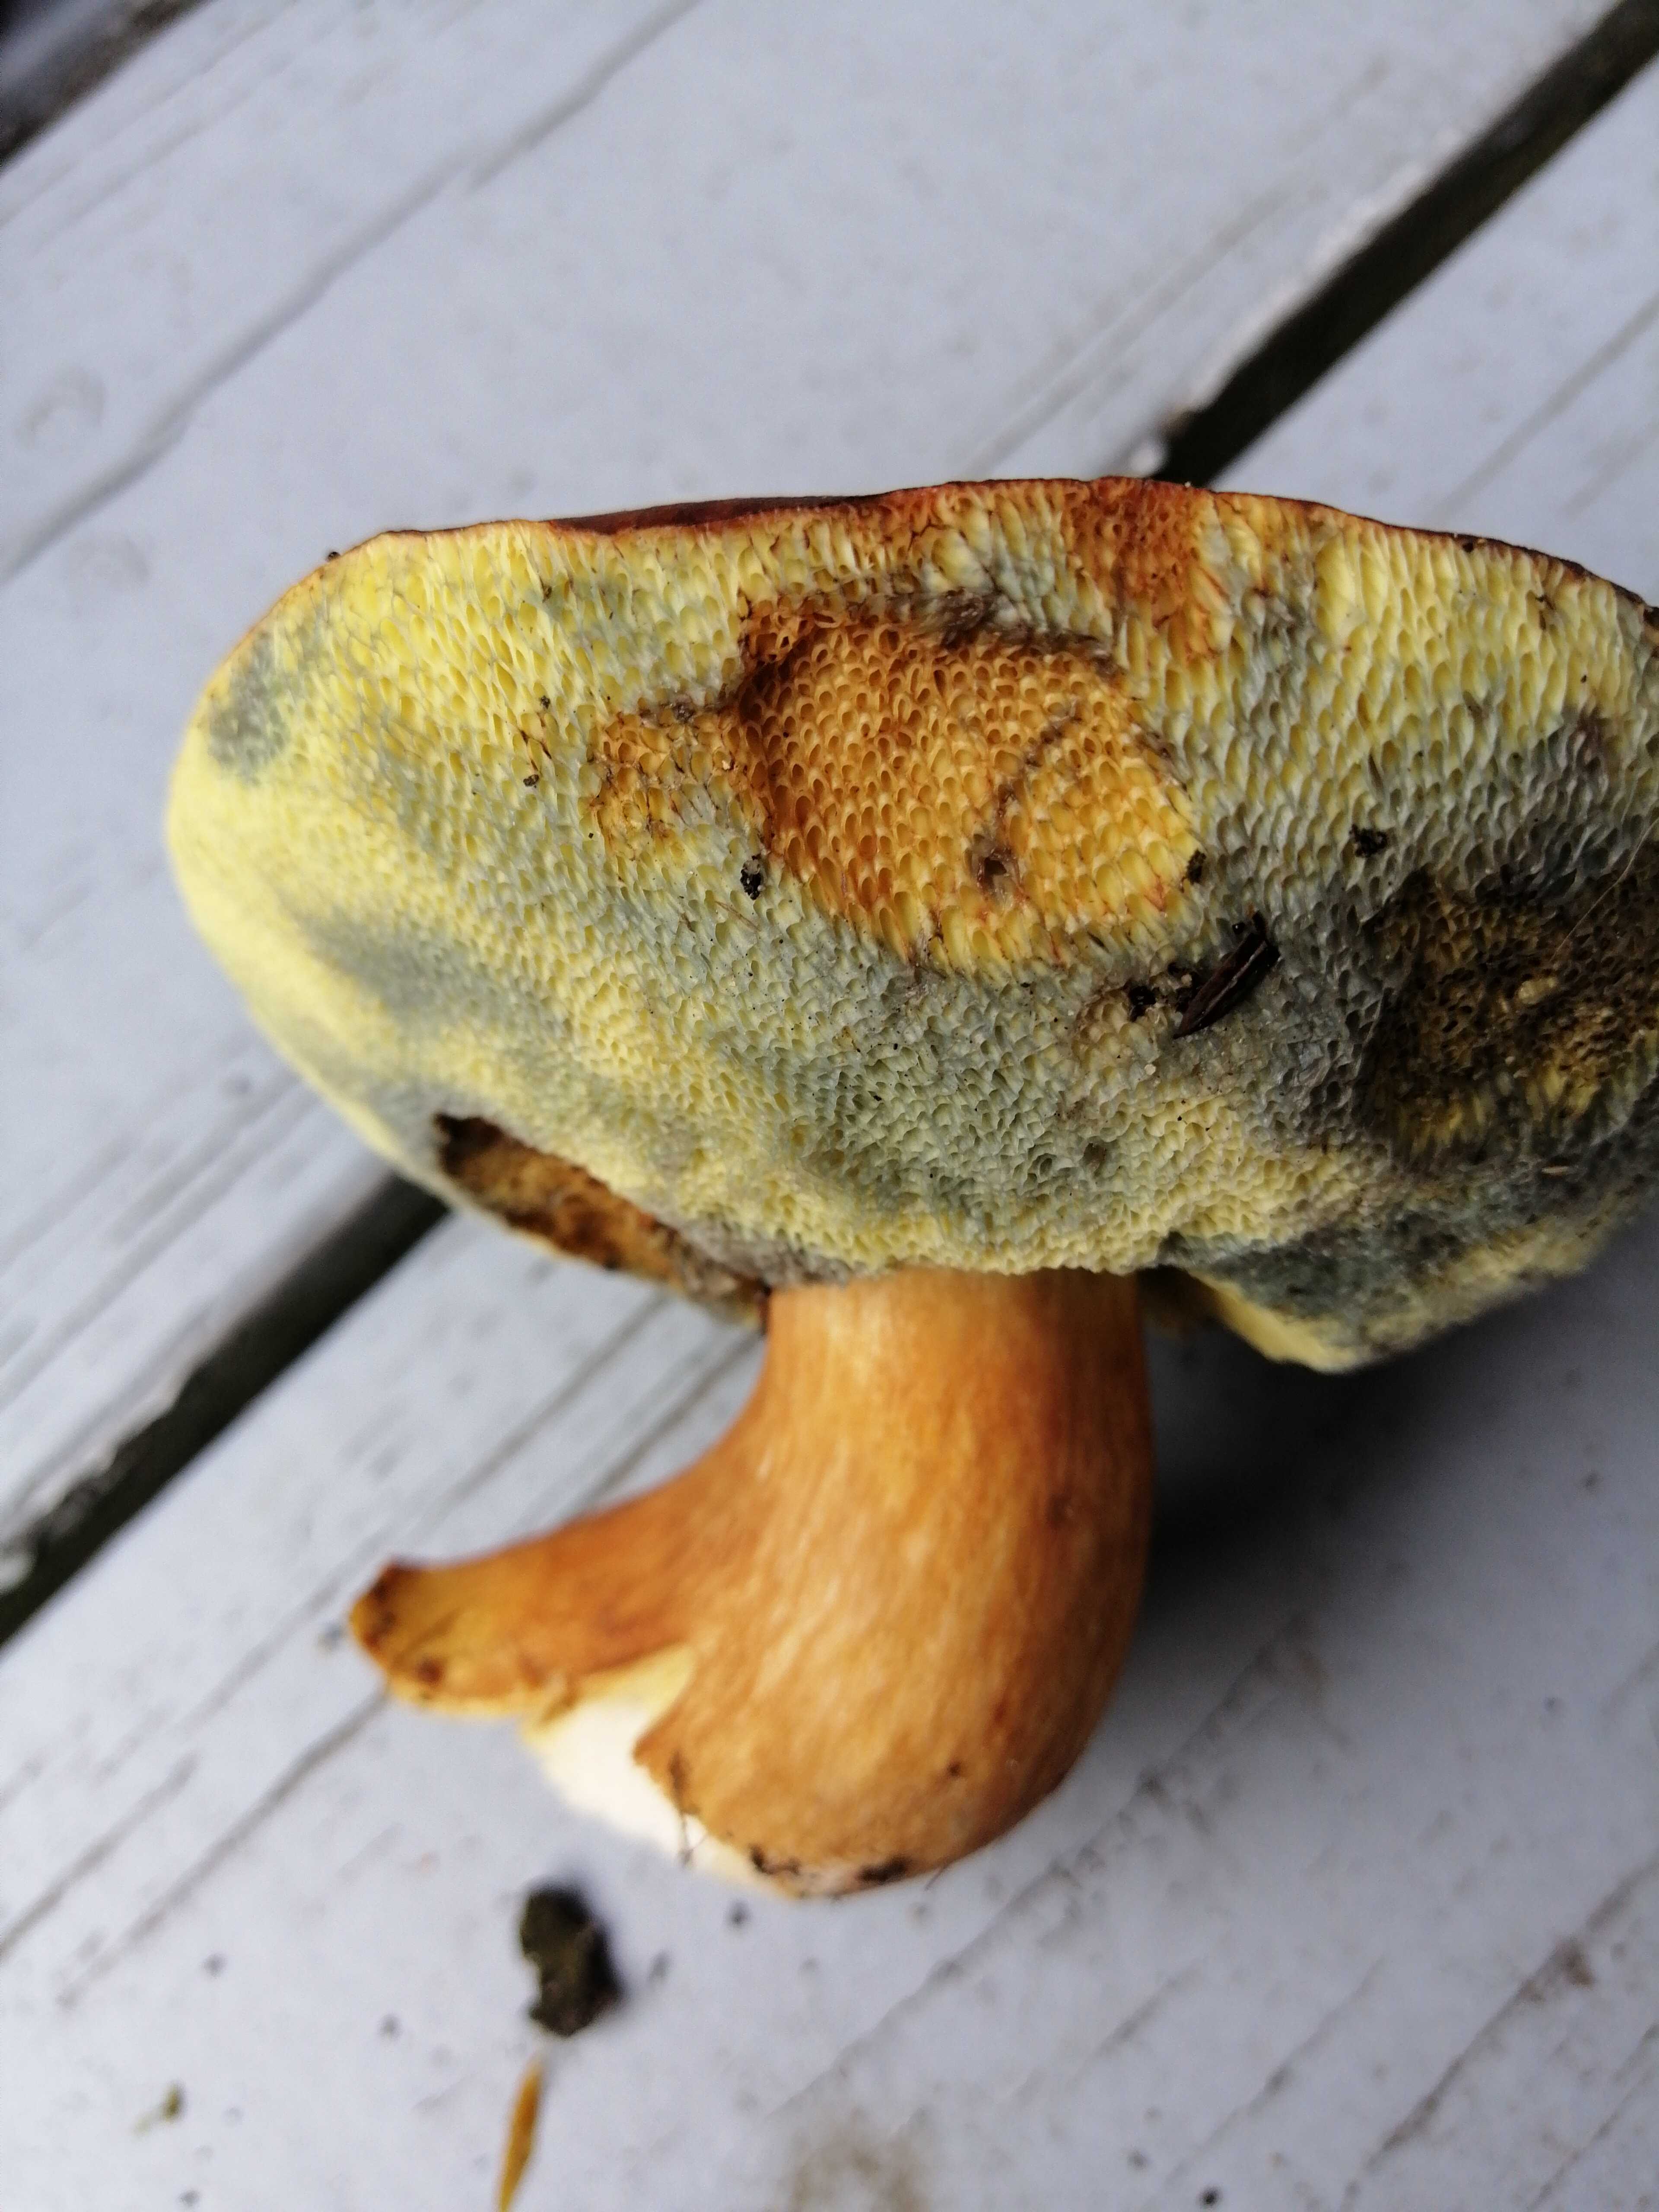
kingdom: Fungi
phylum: Basidiomycota
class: Agaricomycetes
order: Boletales
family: Boletaceae
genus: Imleria
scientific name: Imleria badia
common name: brunstokket rørhat
